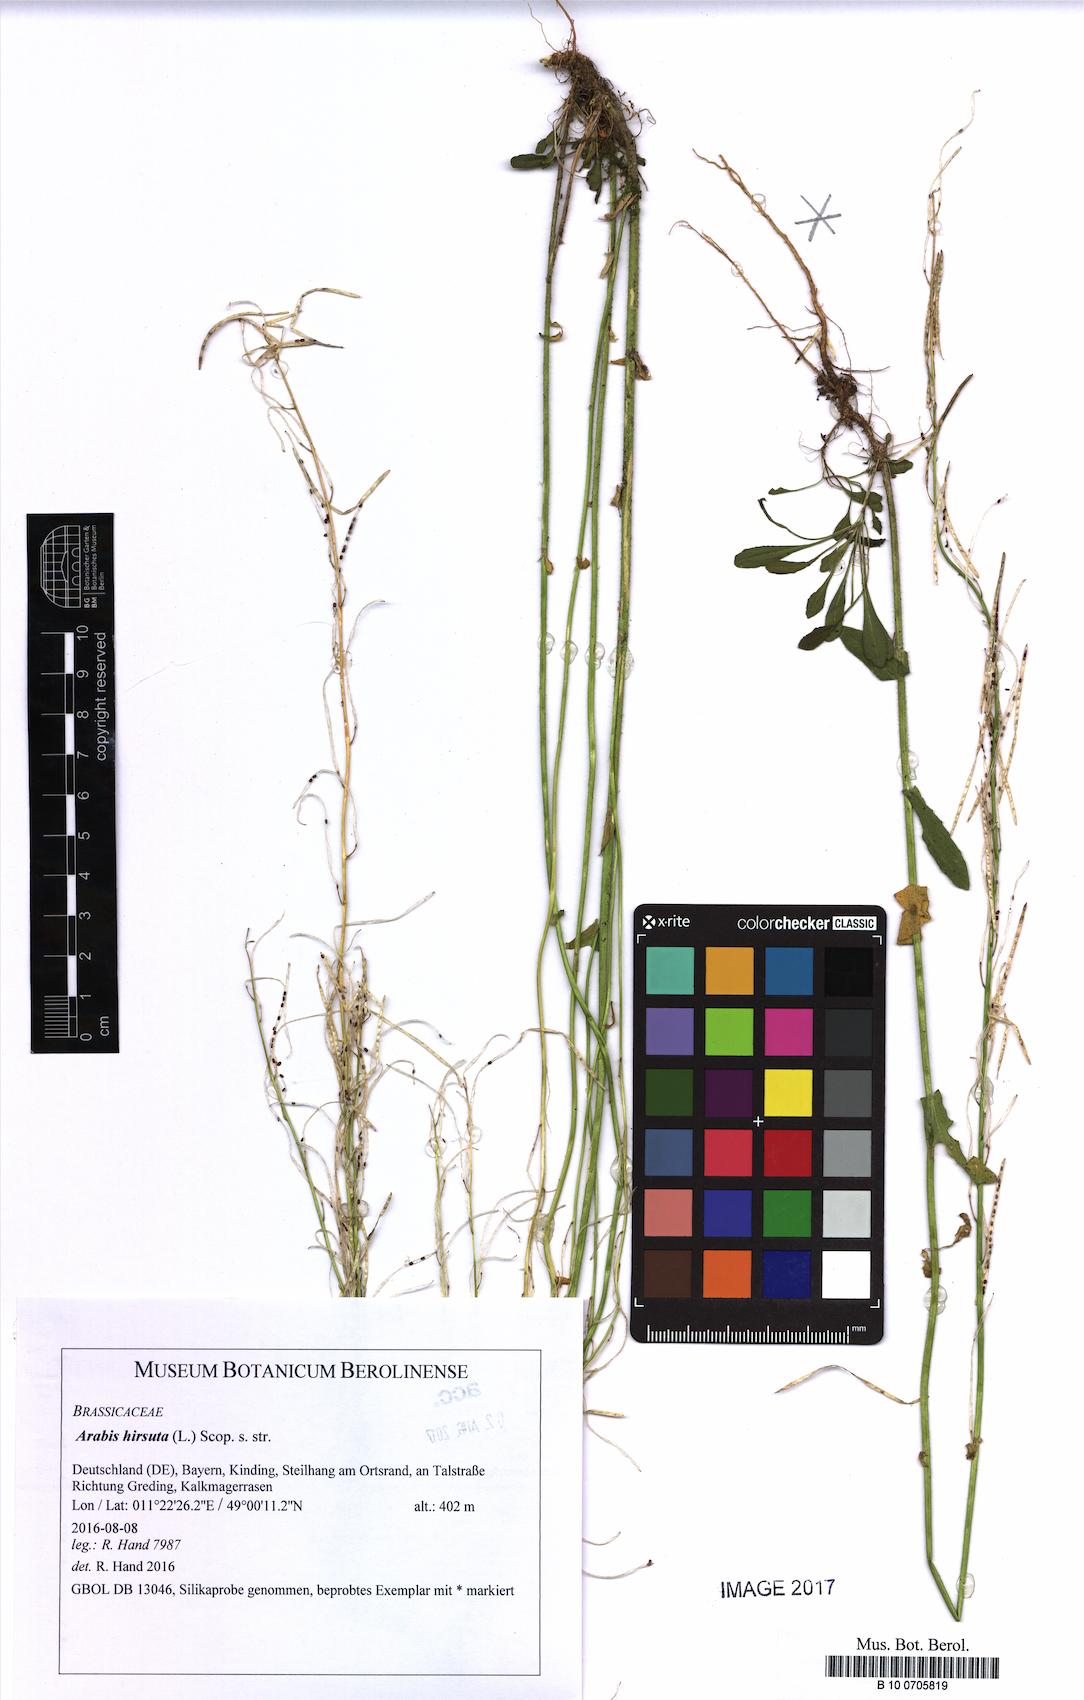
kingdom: Plantae
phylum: Tracheophyta
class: Magnoliopsida
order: Brassicales
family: Brassicaceae
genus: Arabis
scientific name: Arabis hirsuta
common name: Hairy rock-cress
